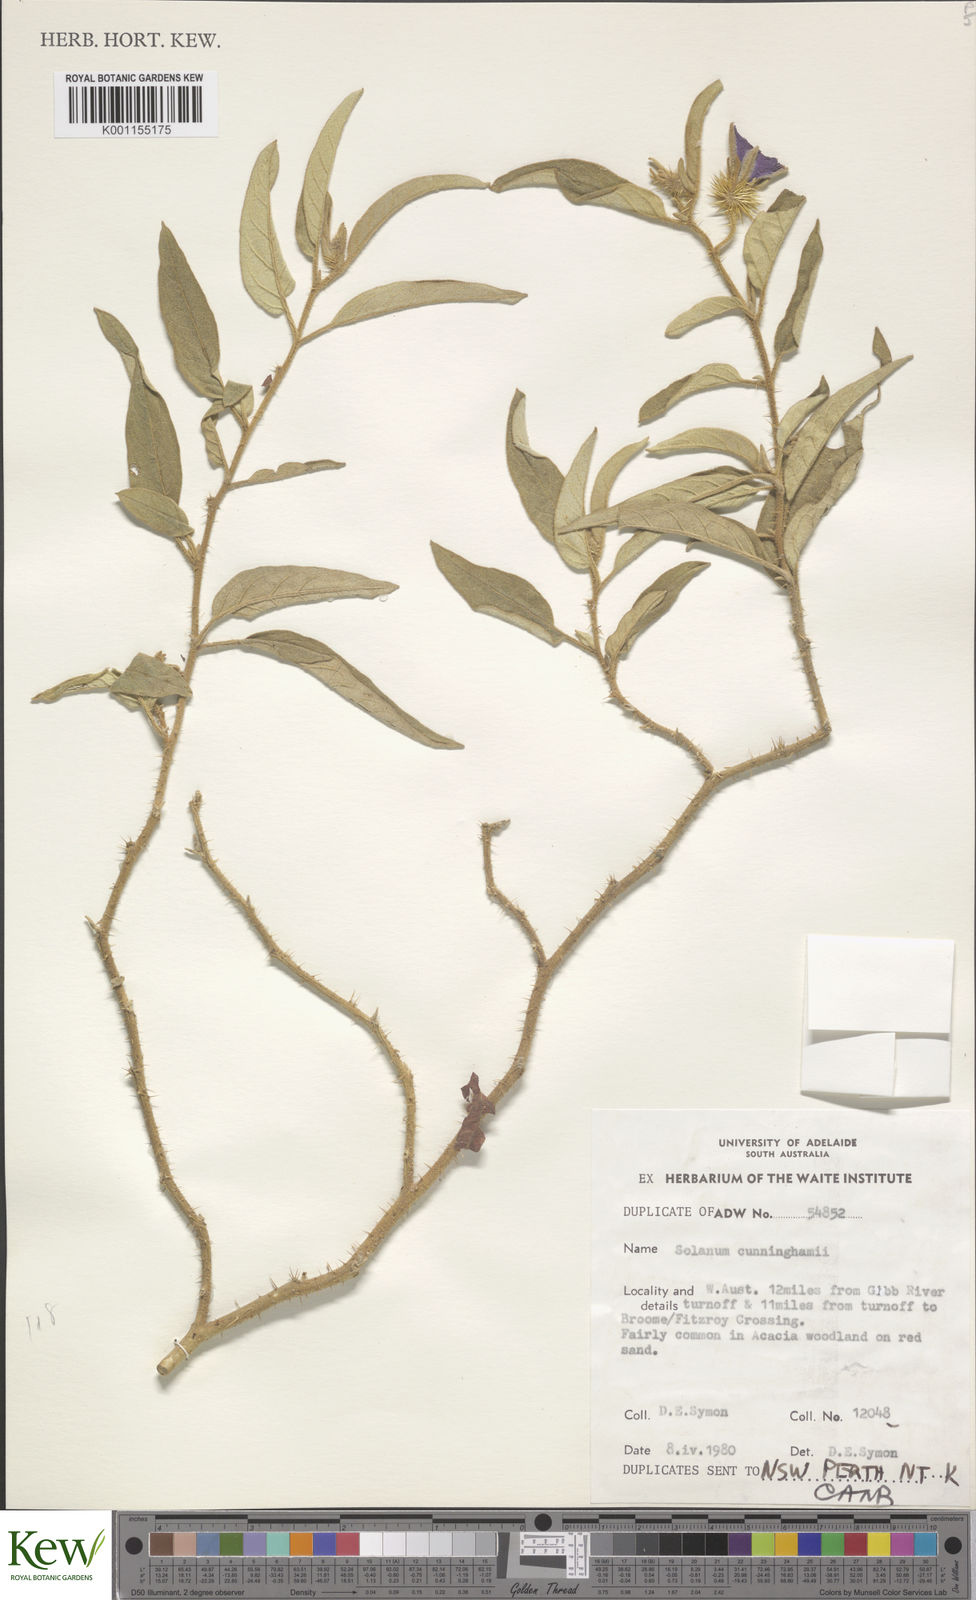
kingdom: Plantae
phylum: Tracheophyta
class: Magnoliopsida
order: Solanales
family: Solanaceae
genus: Solanum
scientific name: Solanum cunninghamii
